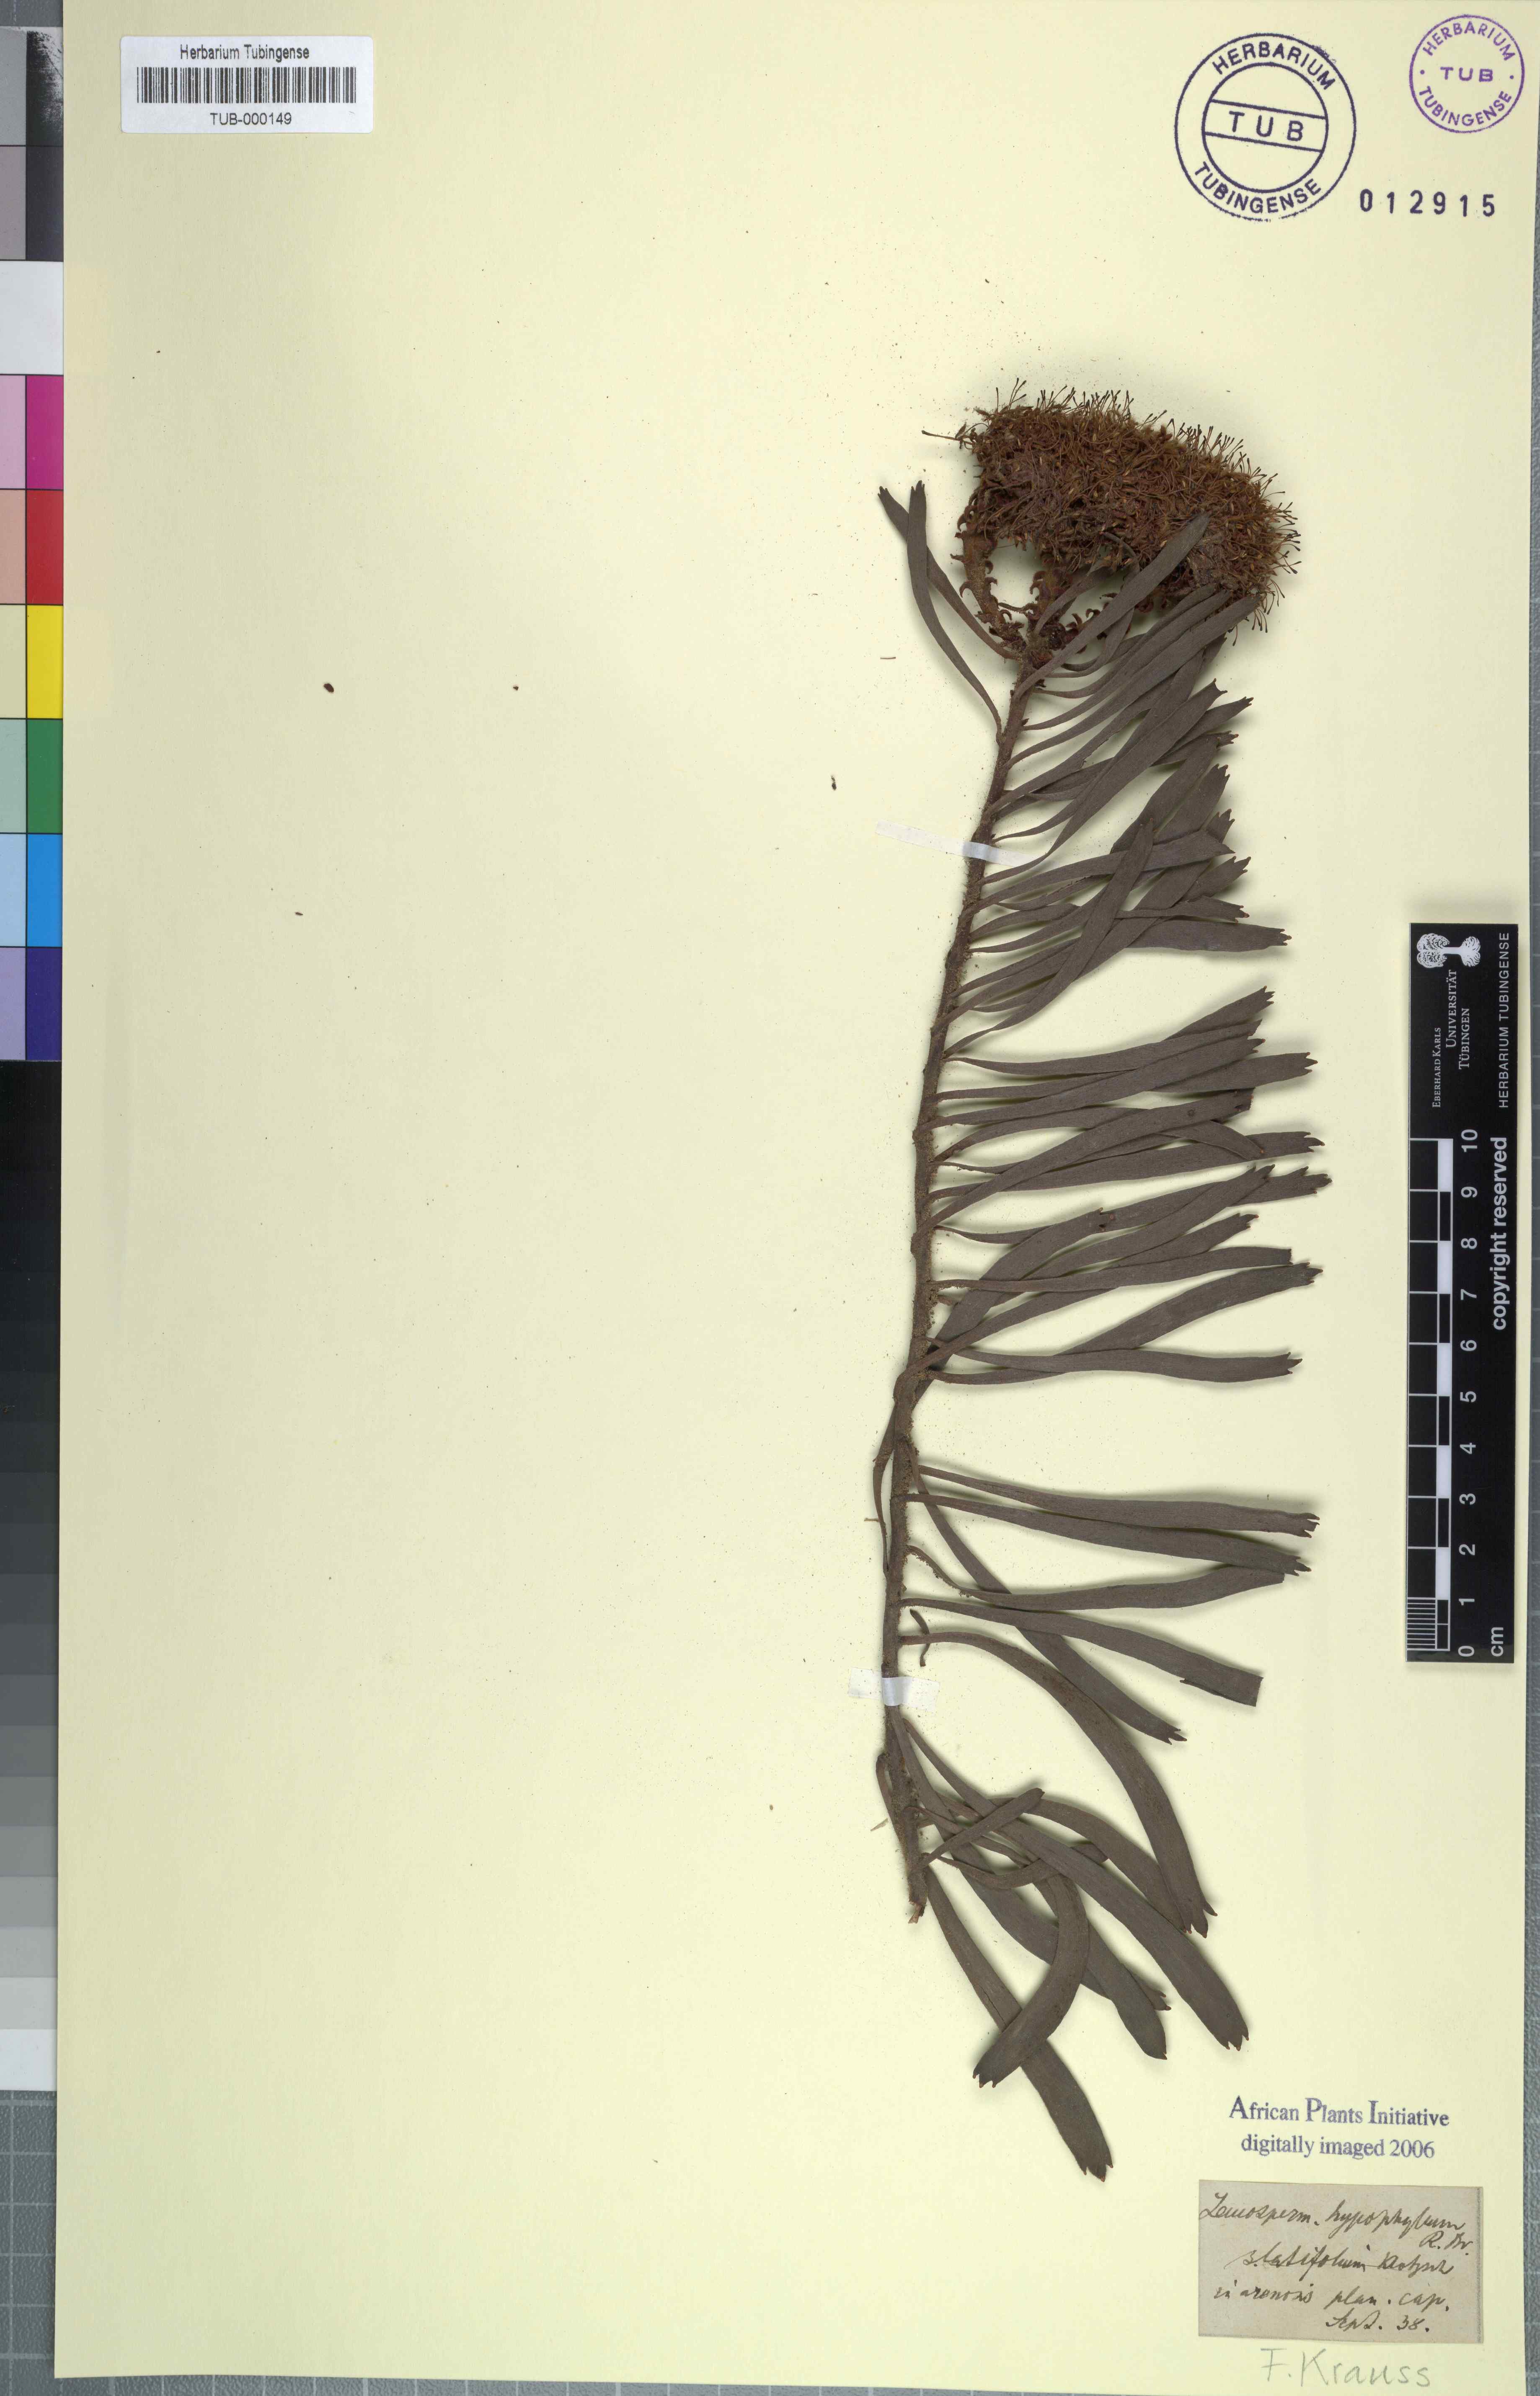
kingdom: Plantae
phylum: Tracheophyta
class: Magnoliopsida
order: Proteales
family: Proteaceae
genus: Leucospermum
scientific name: Leucospermum hypophyllocarpodendron
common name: Snakestem pincushion
